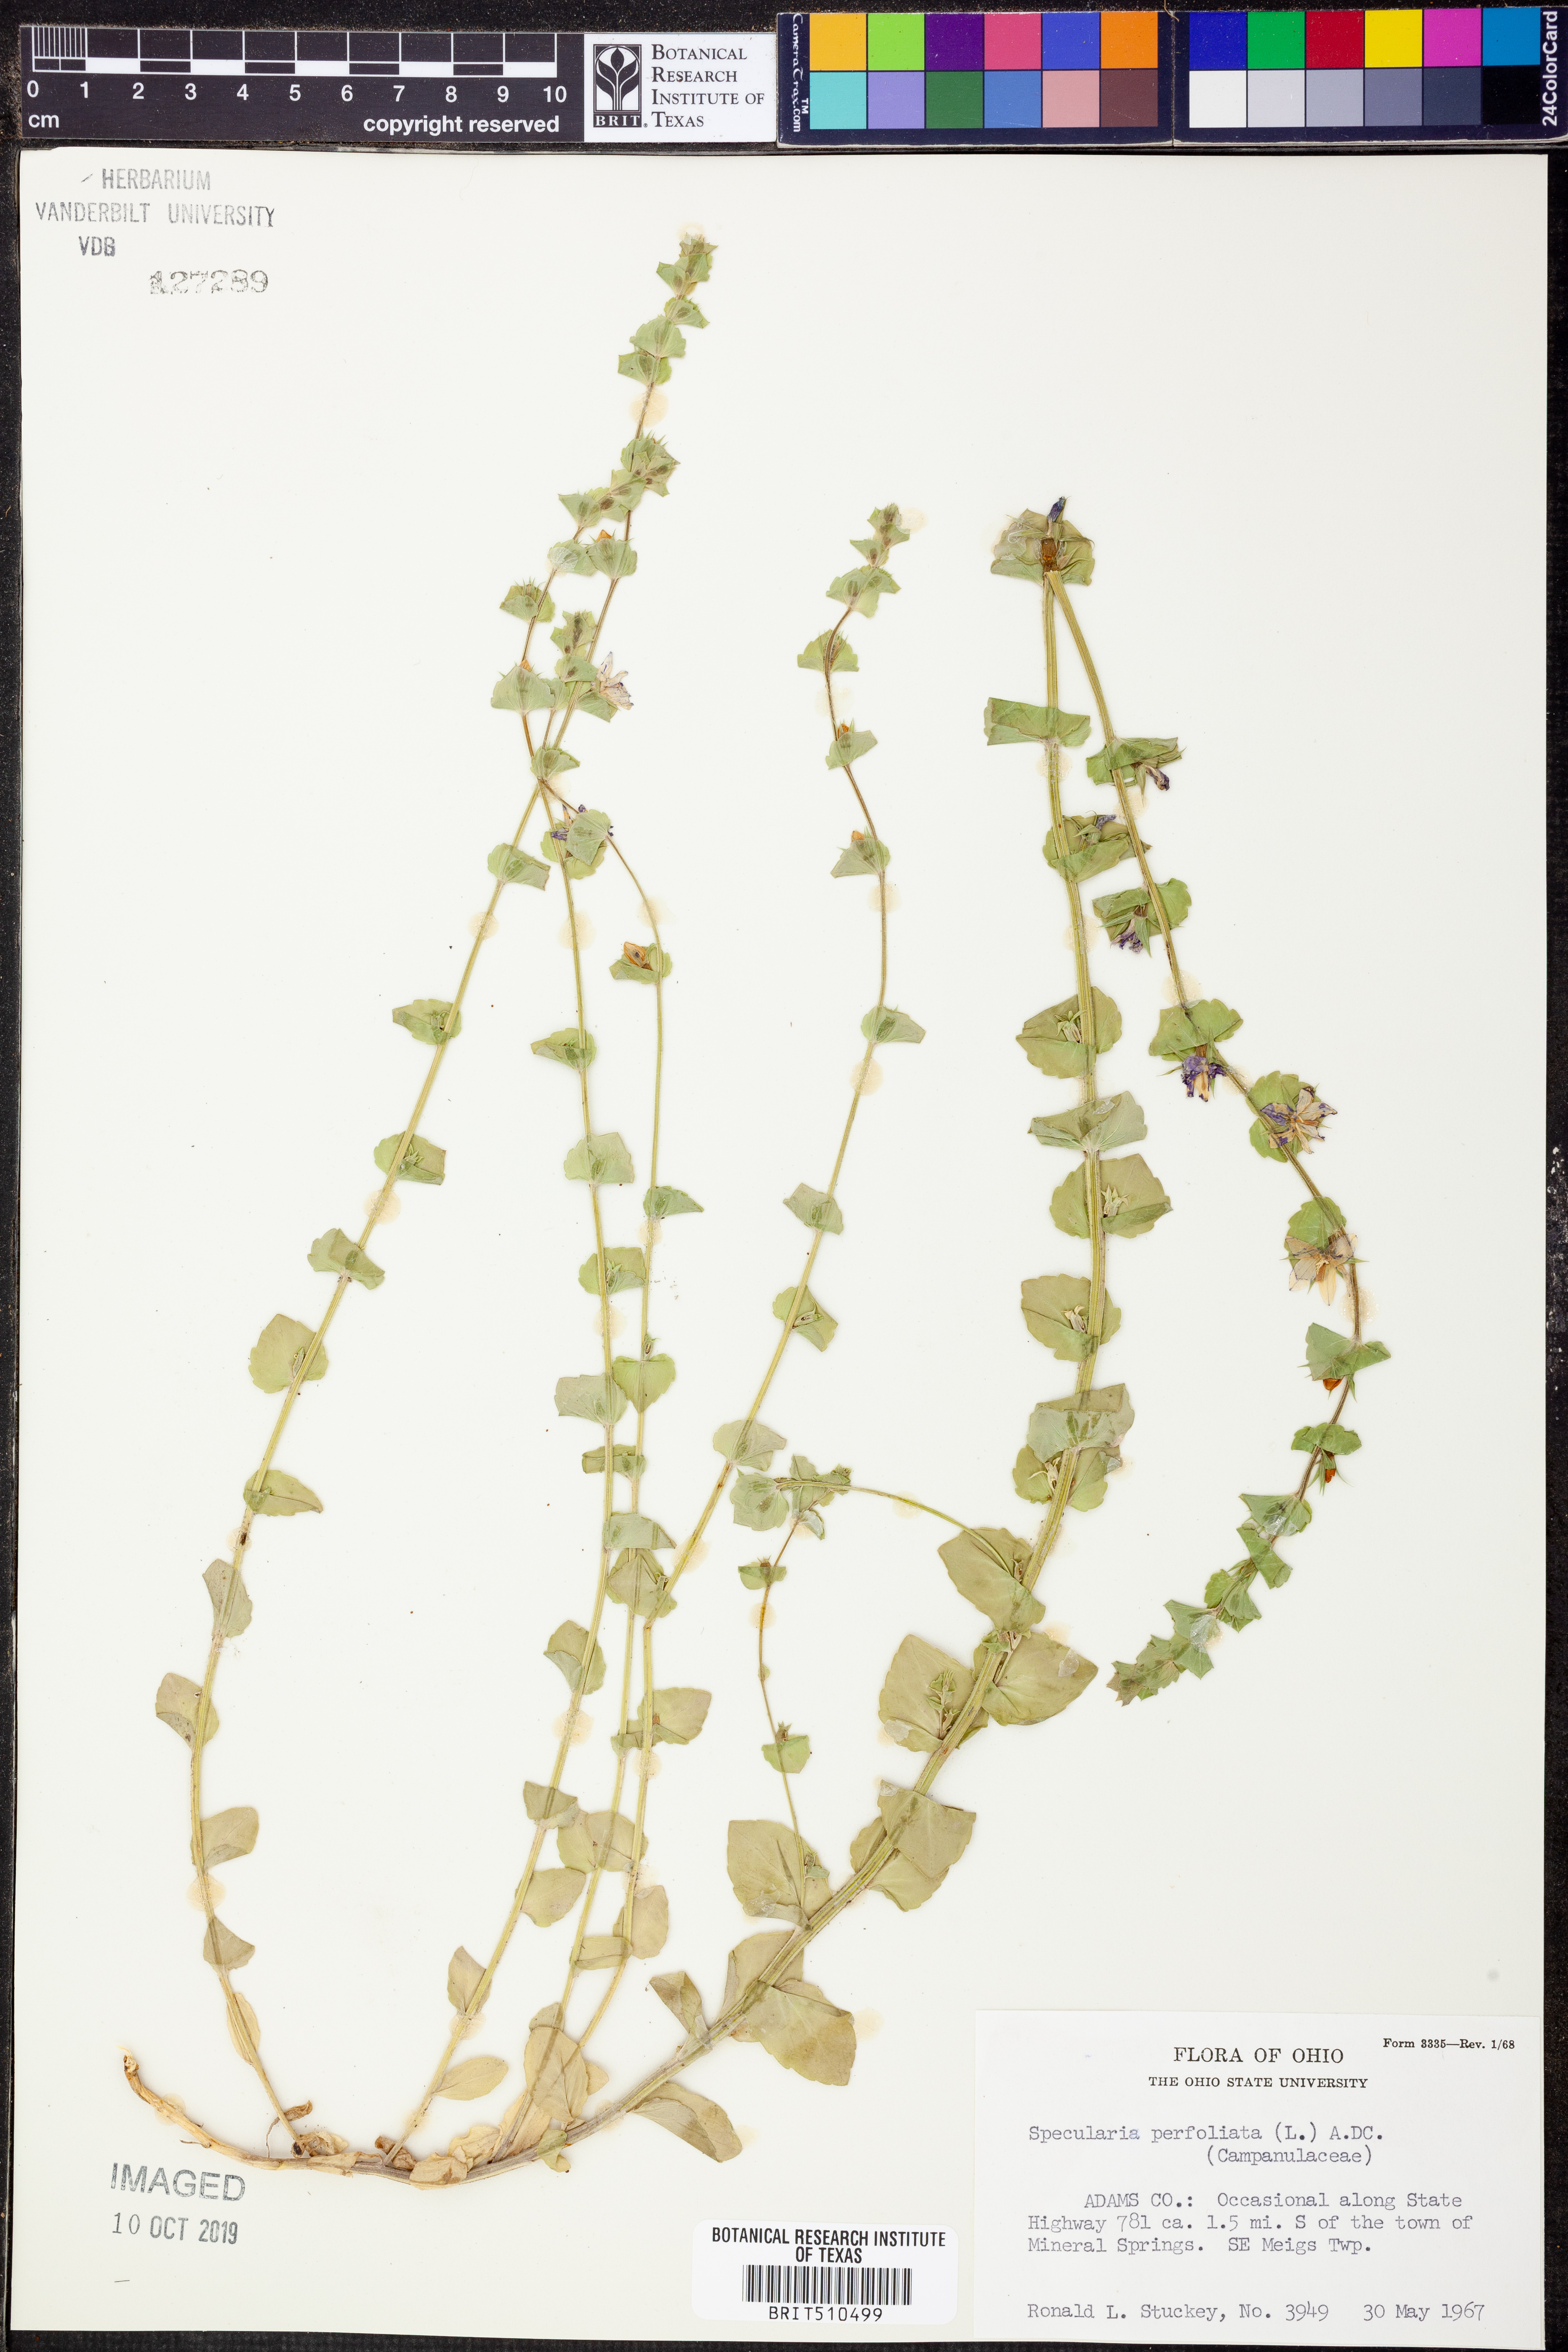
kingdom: Plantae
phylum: Tracheophyta
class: Magnoliopsida
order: Asterales
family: Campanulaceae
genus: Triodanis
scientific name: Triodanis perfoliata
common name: Clasping venus' looking-glass
